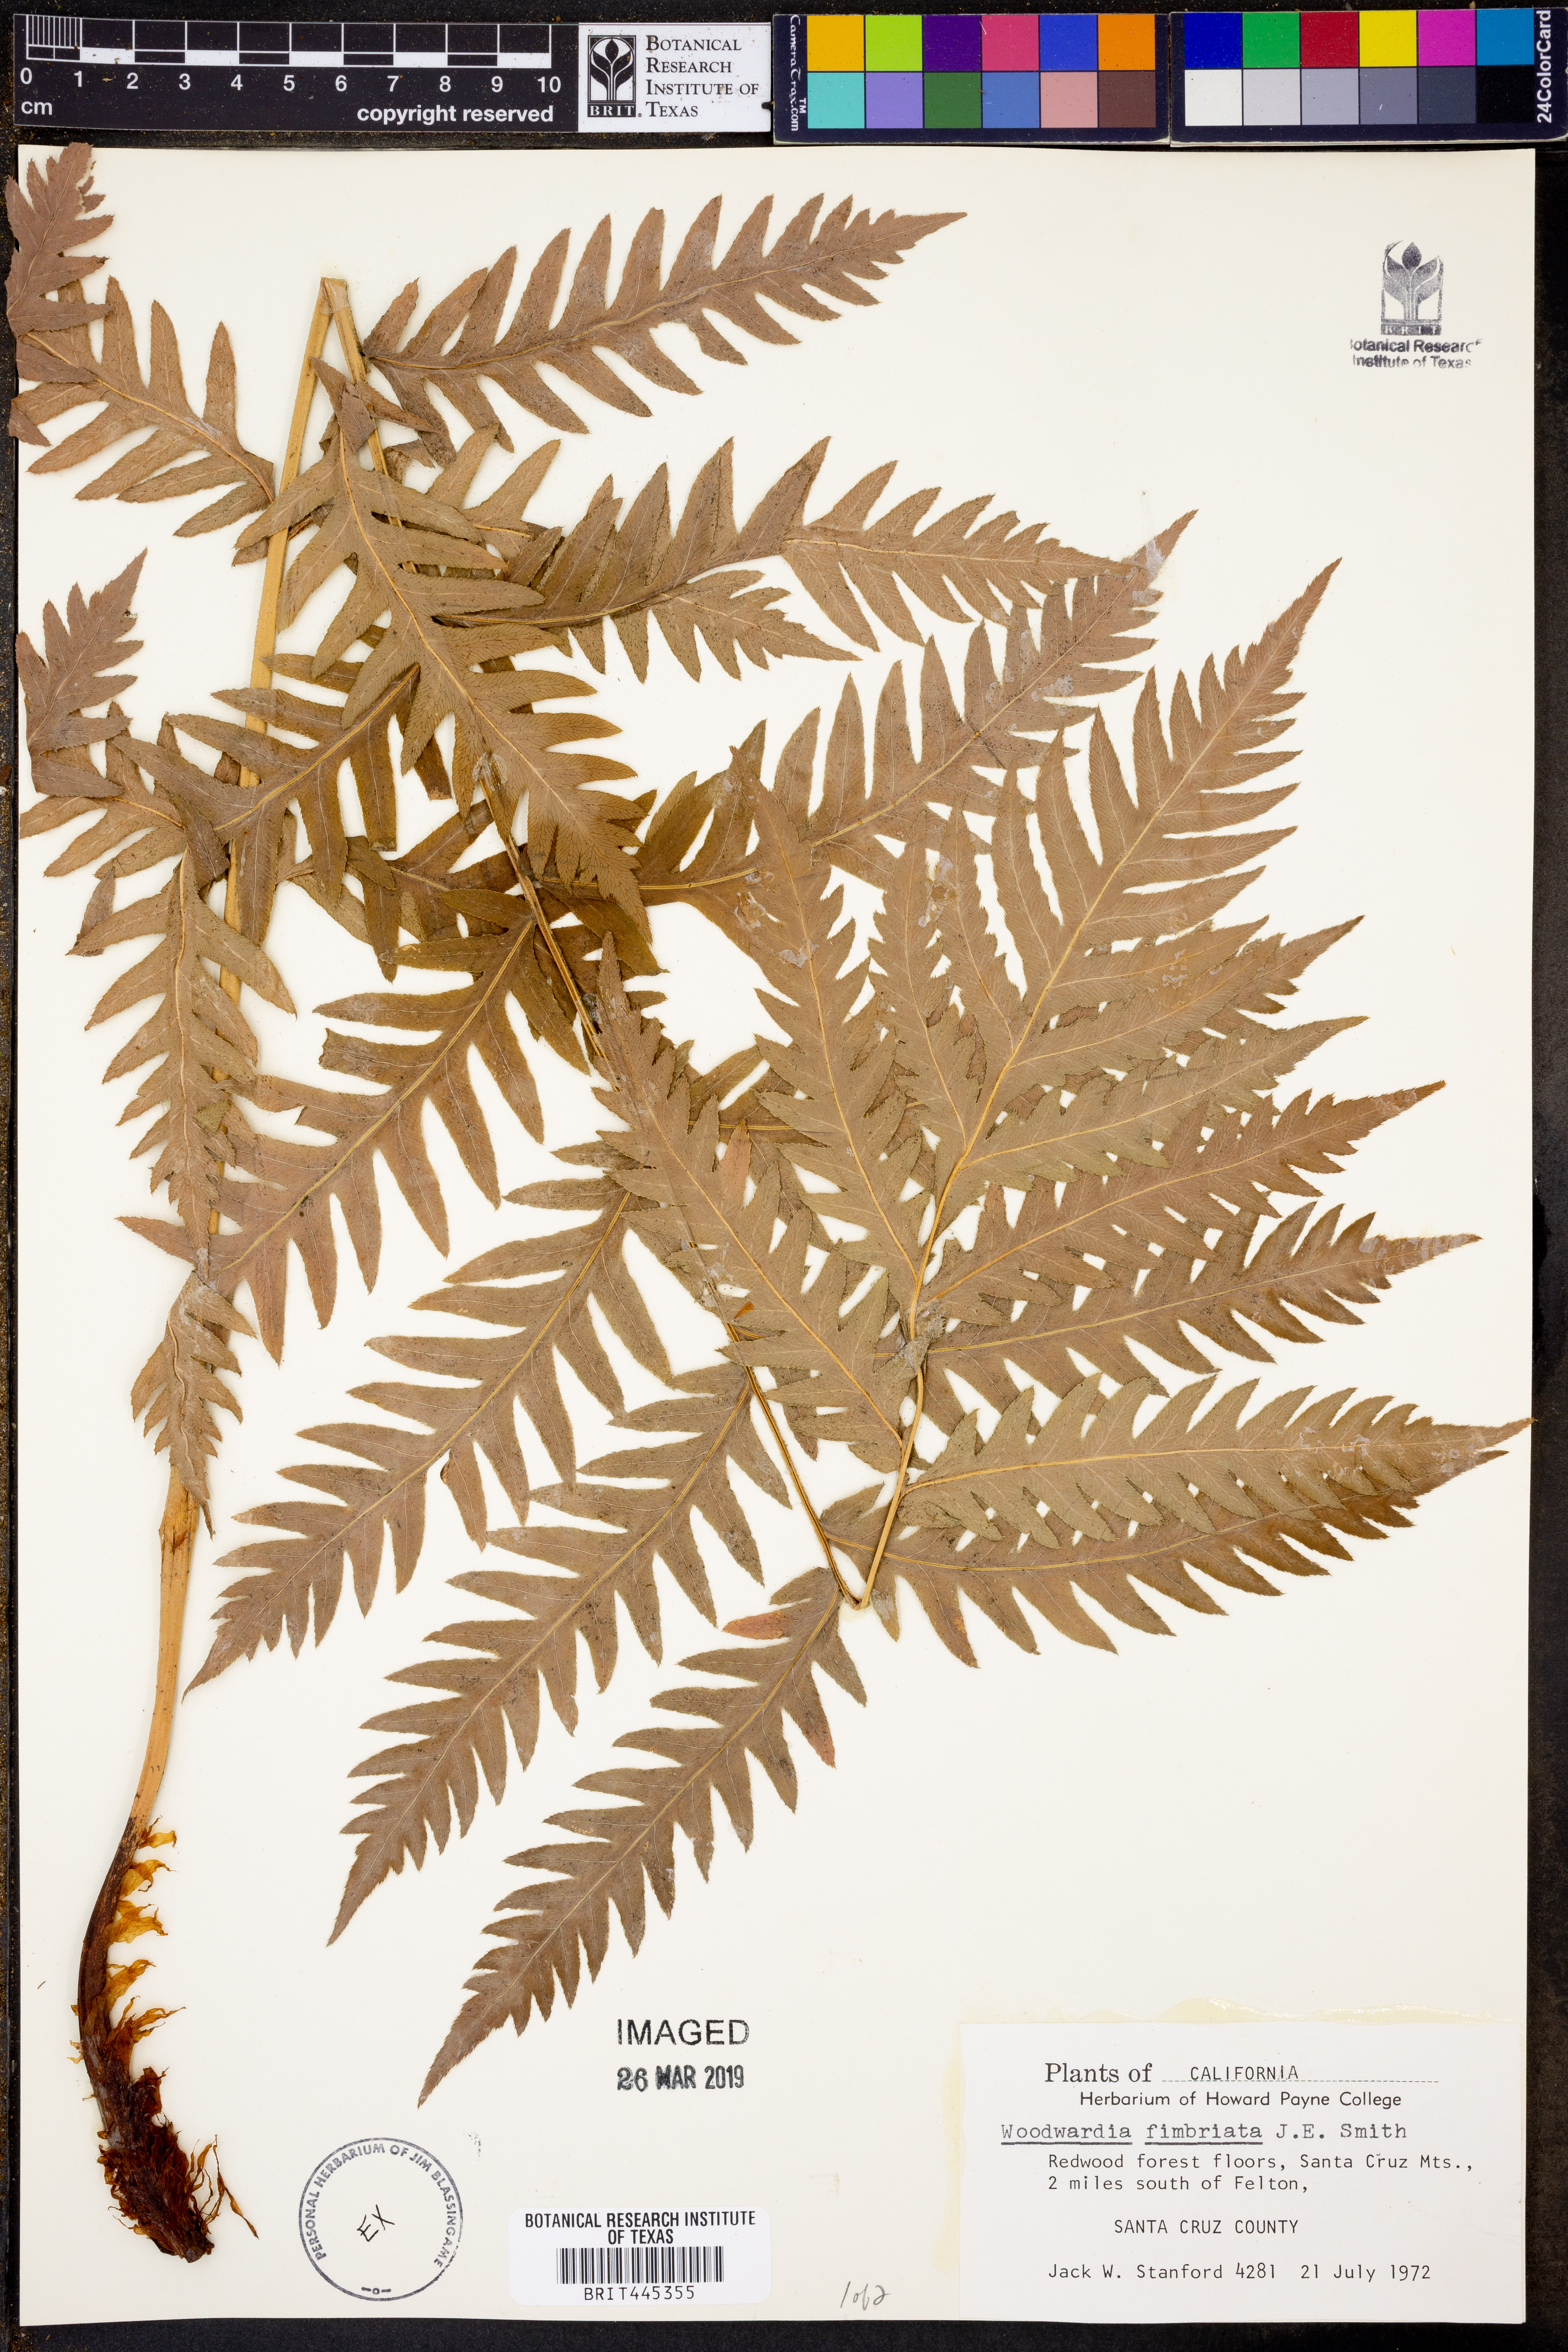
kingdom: Plantae
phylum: Tracheophyta
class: Polypodiopsida
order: Polypodiales
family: Blechnaceae
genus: Woodwardia
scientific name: Woodwardia fimbriata
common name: Giant chain fern
